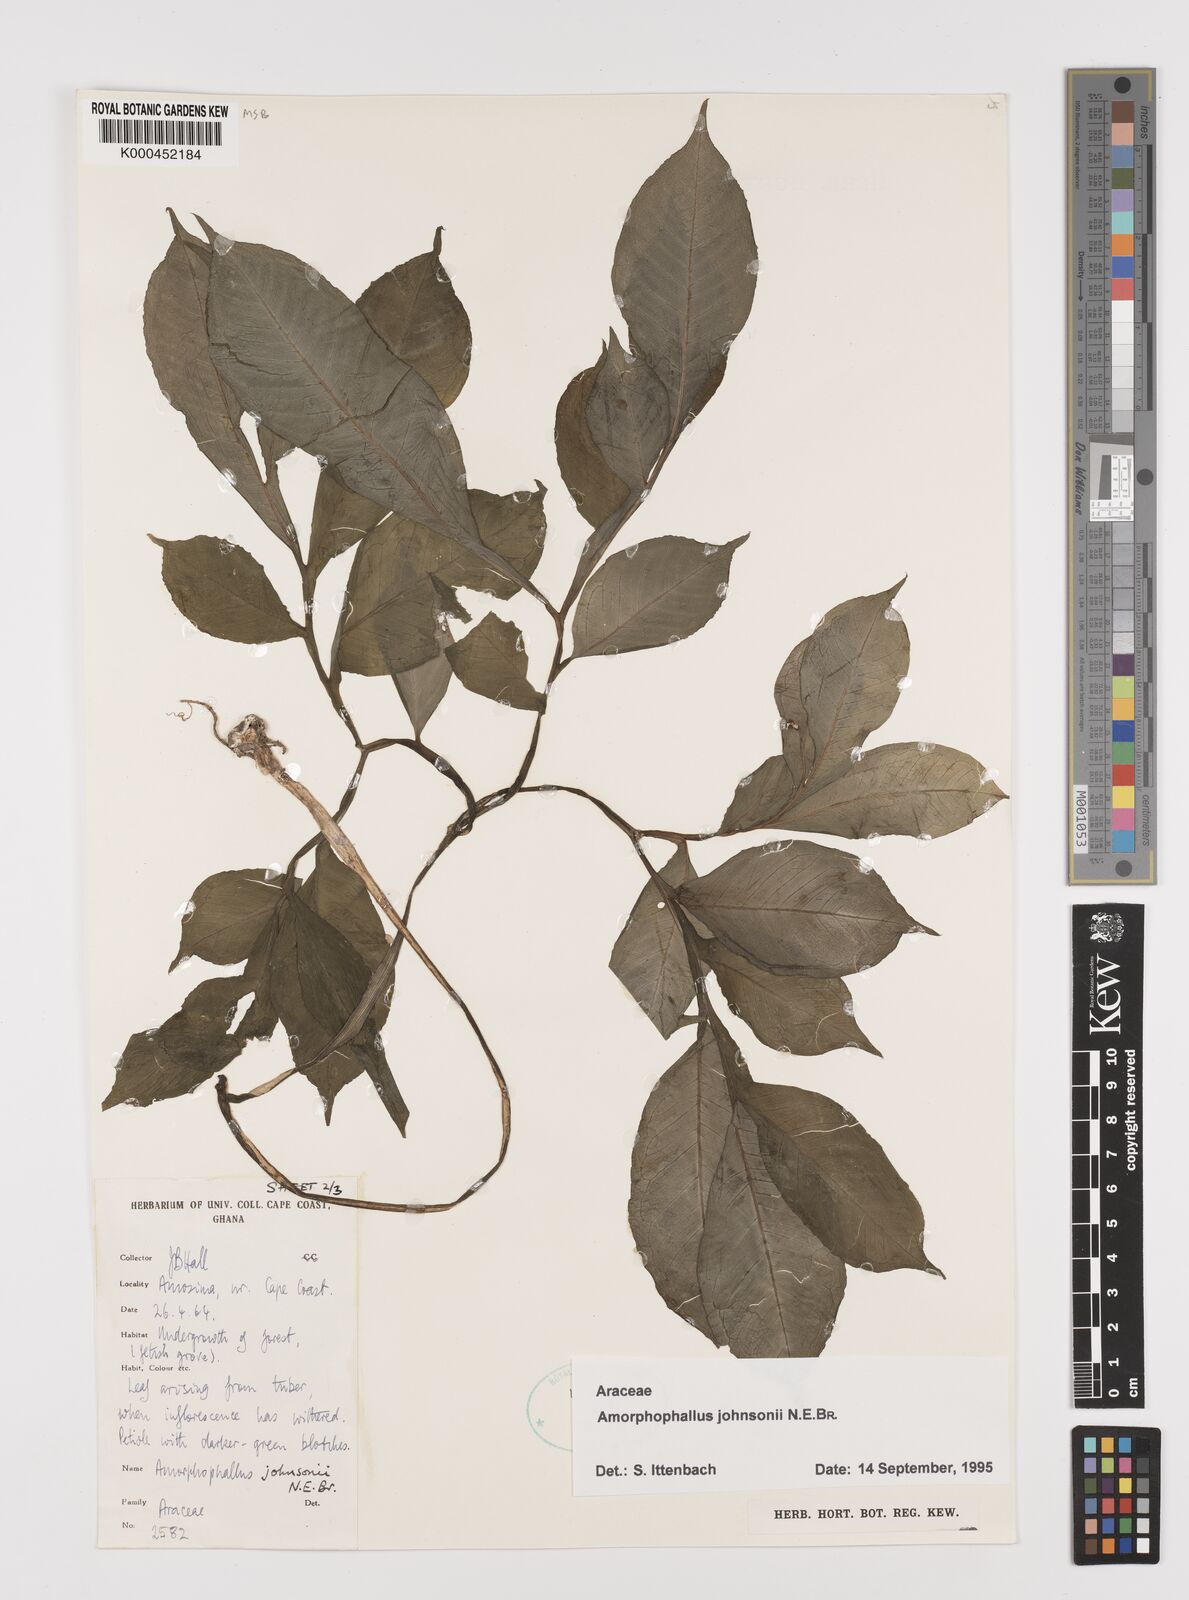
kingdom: Plantae
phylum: Tracheophyta
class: Liliopsida
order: Alismatales
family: Araceae
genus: Amorphophallus
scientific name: Amorphophallus johnsonii
